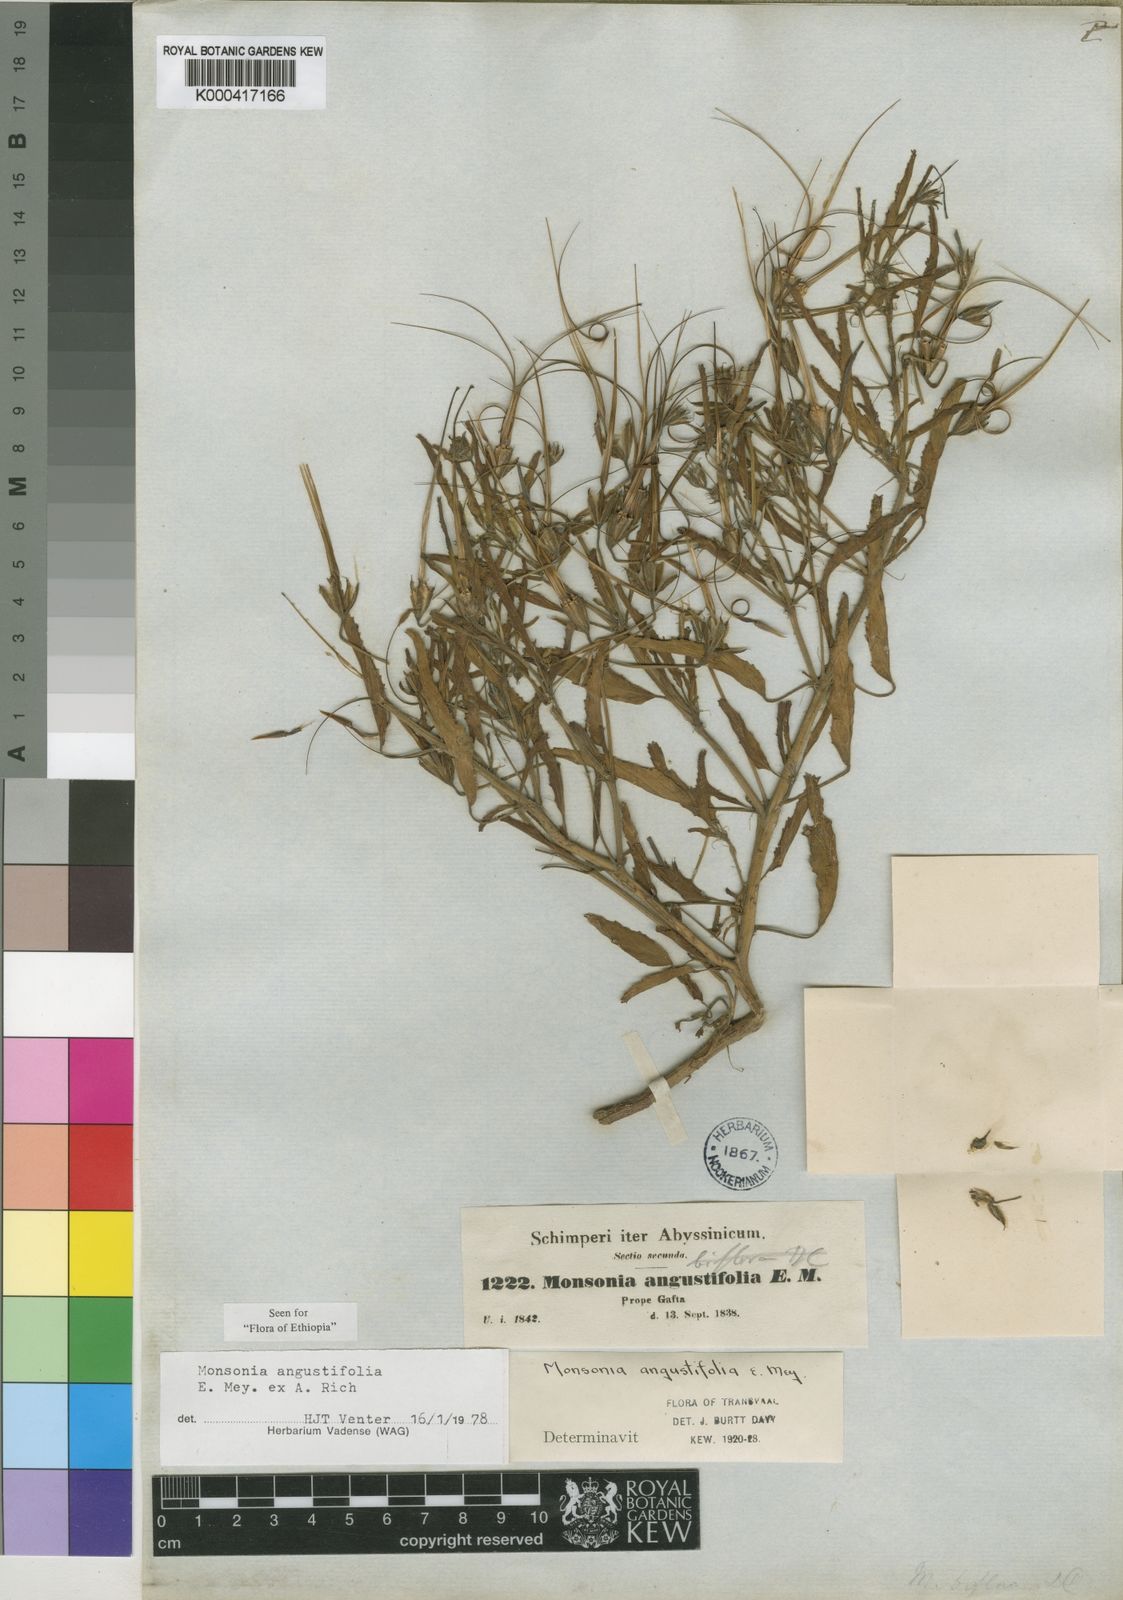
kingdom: Plantae
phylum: Tracheophyta
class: Magnoliopsida
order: Geraniales
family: Geraniaceae
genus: Monsonia
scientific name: Monsonia angustifolia
